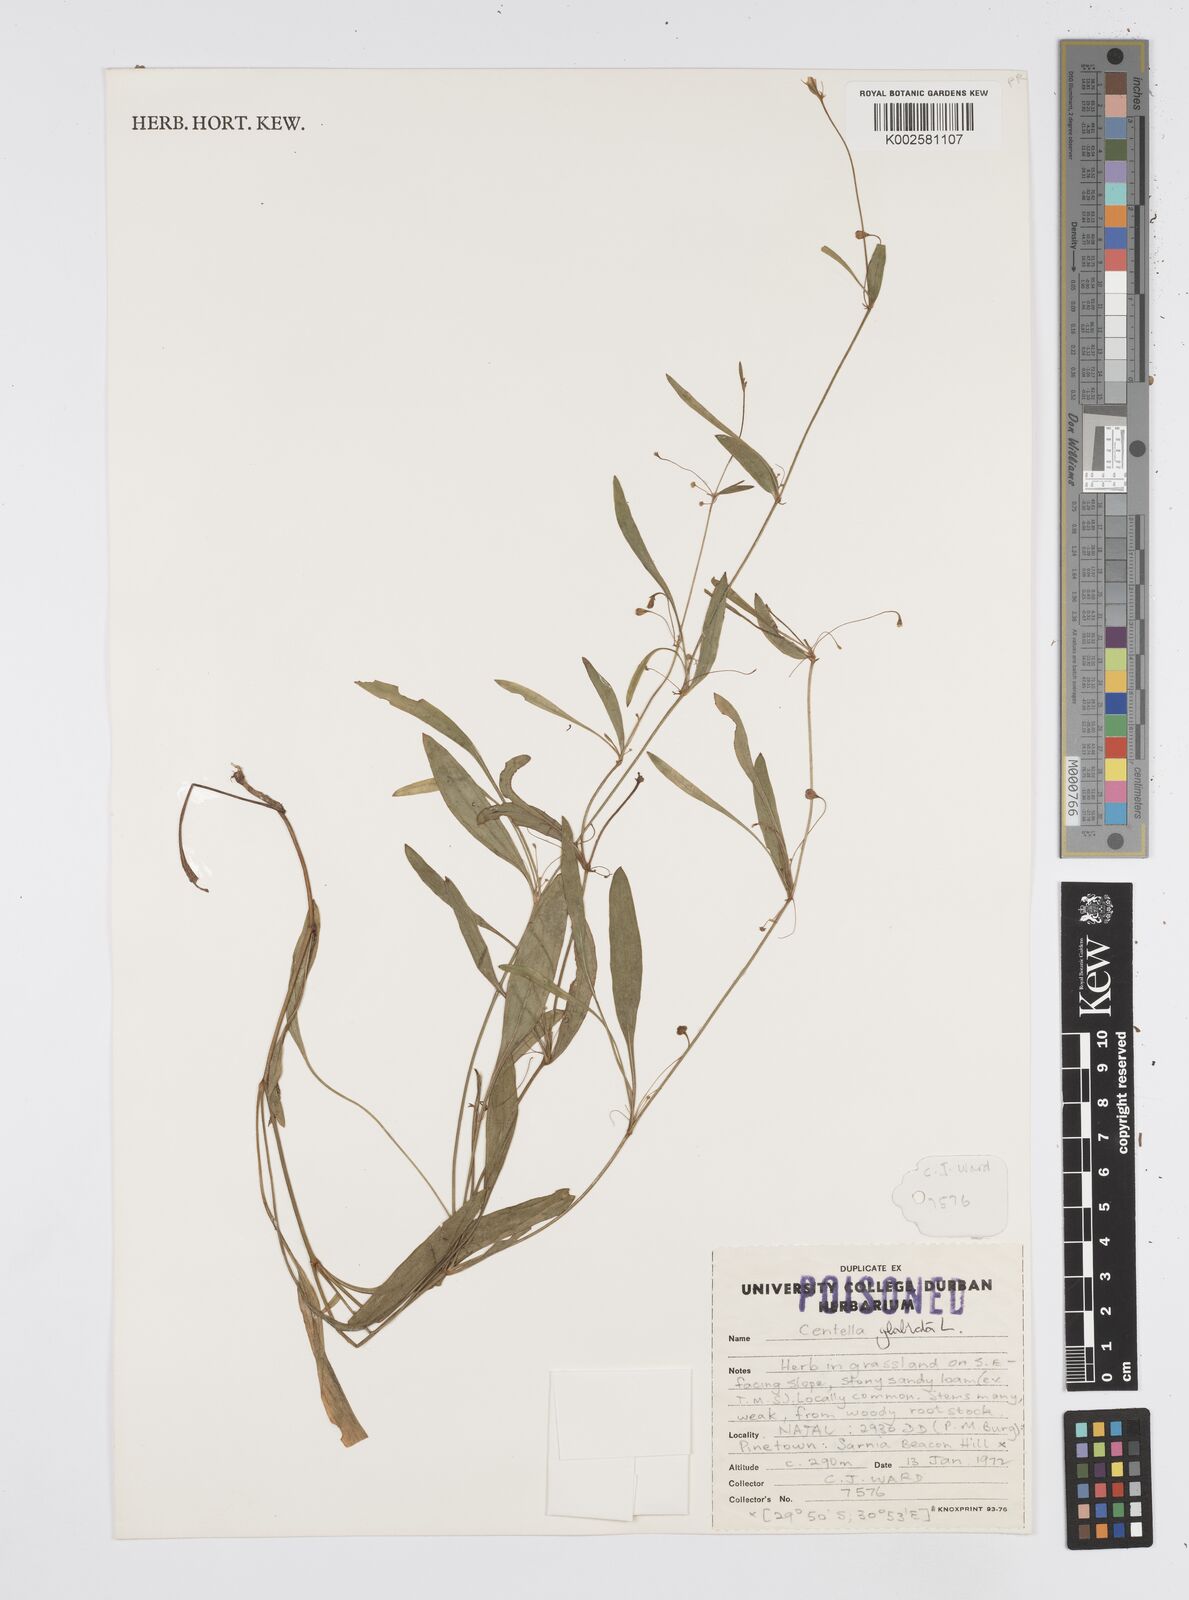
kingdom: Plantae
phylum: Tracheophyta
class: Magnoliopsida
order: Apiales
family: Apiaceae
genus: Centella
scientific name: Centella glabrata
